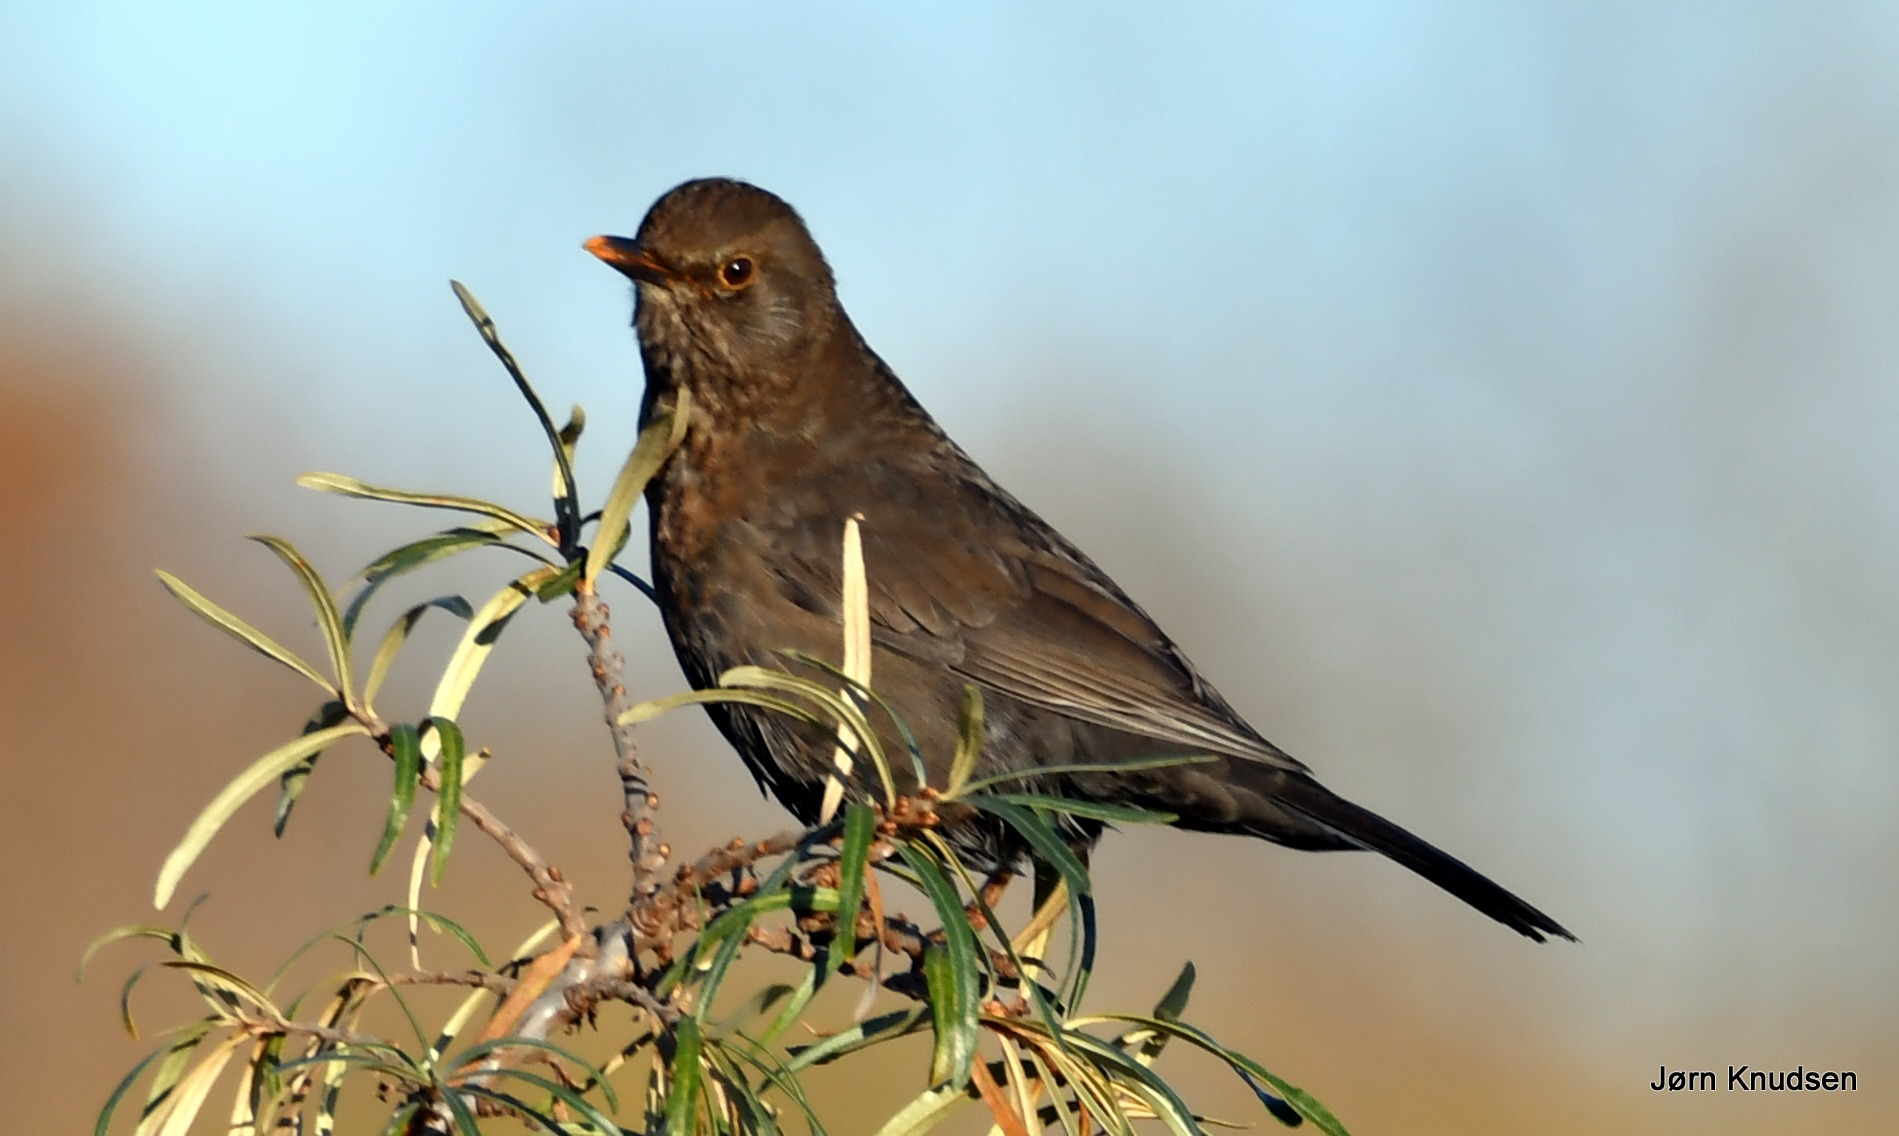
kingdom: Animalia
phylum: Chordata
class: Aves
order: Passeriformes
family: Turdidae
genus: Turdus
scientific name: Turdus merula
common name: Solsort
